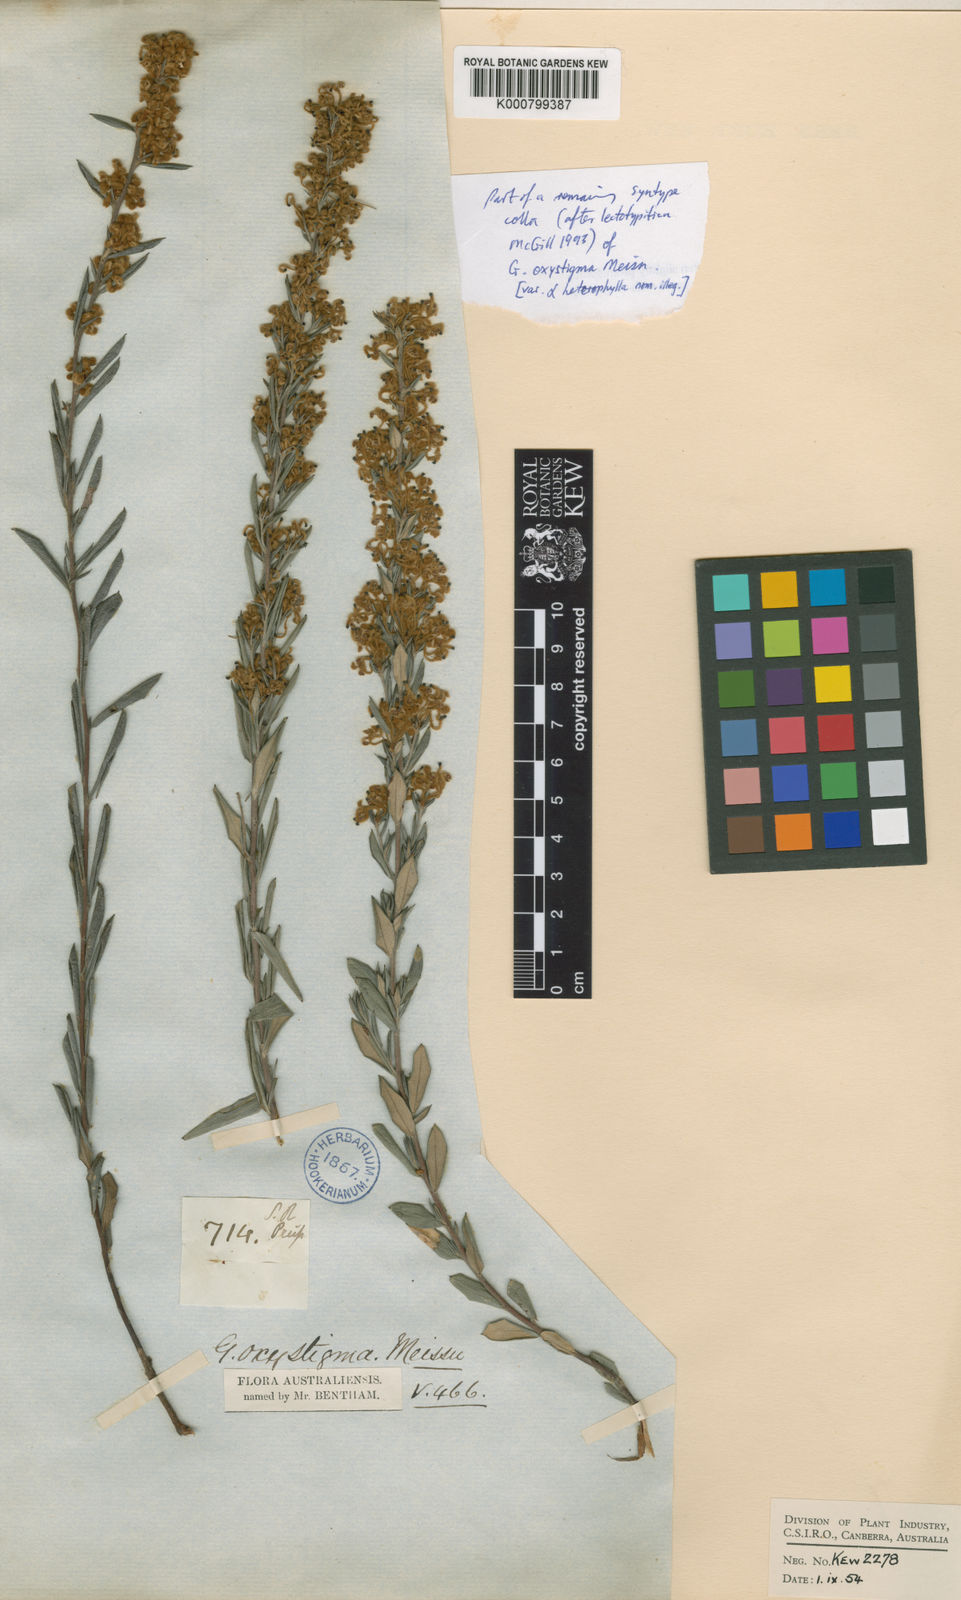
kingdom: Plantae
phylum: Tracheophyta
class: Magnoliopsida
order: Proteales
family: Proteaceae
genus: Grevillea
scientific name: Grevillea pilulifera
